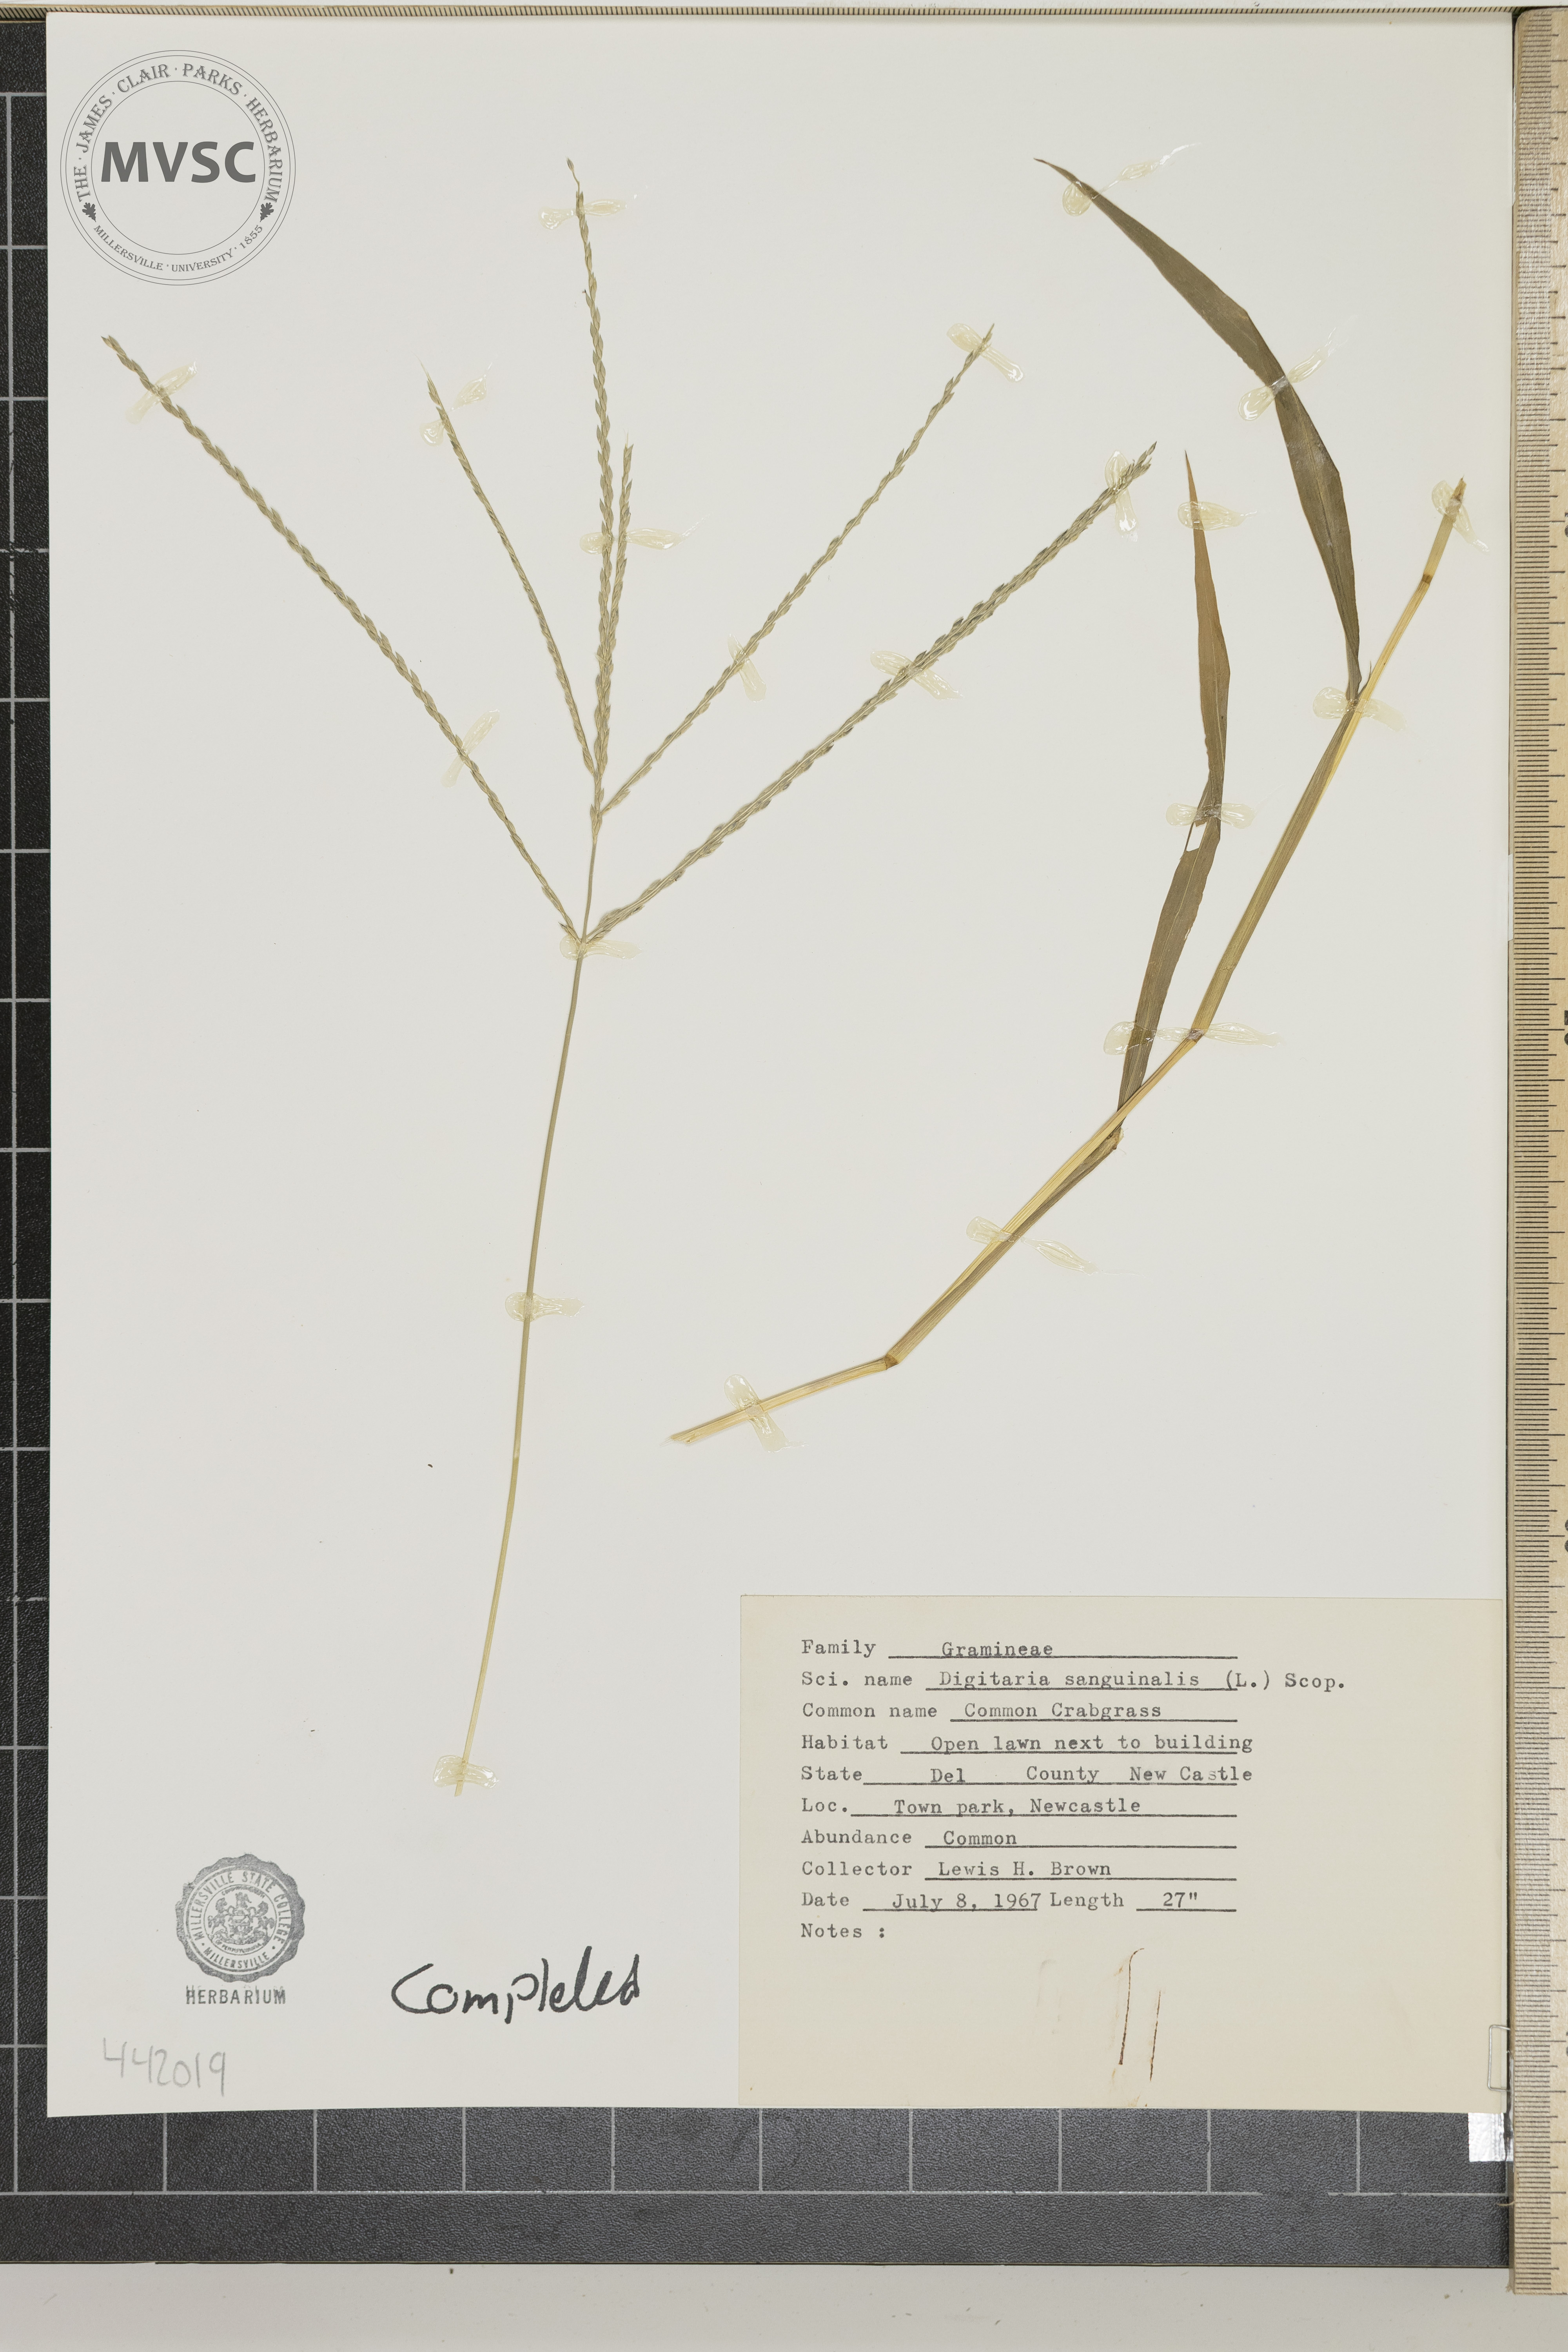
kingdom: Plantae
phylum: Tracheophyta
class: Liliopsida
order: Poales
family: Poaceae
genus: Digitaria
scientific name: Digitaria sanguinalis
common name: Common crabgrass
